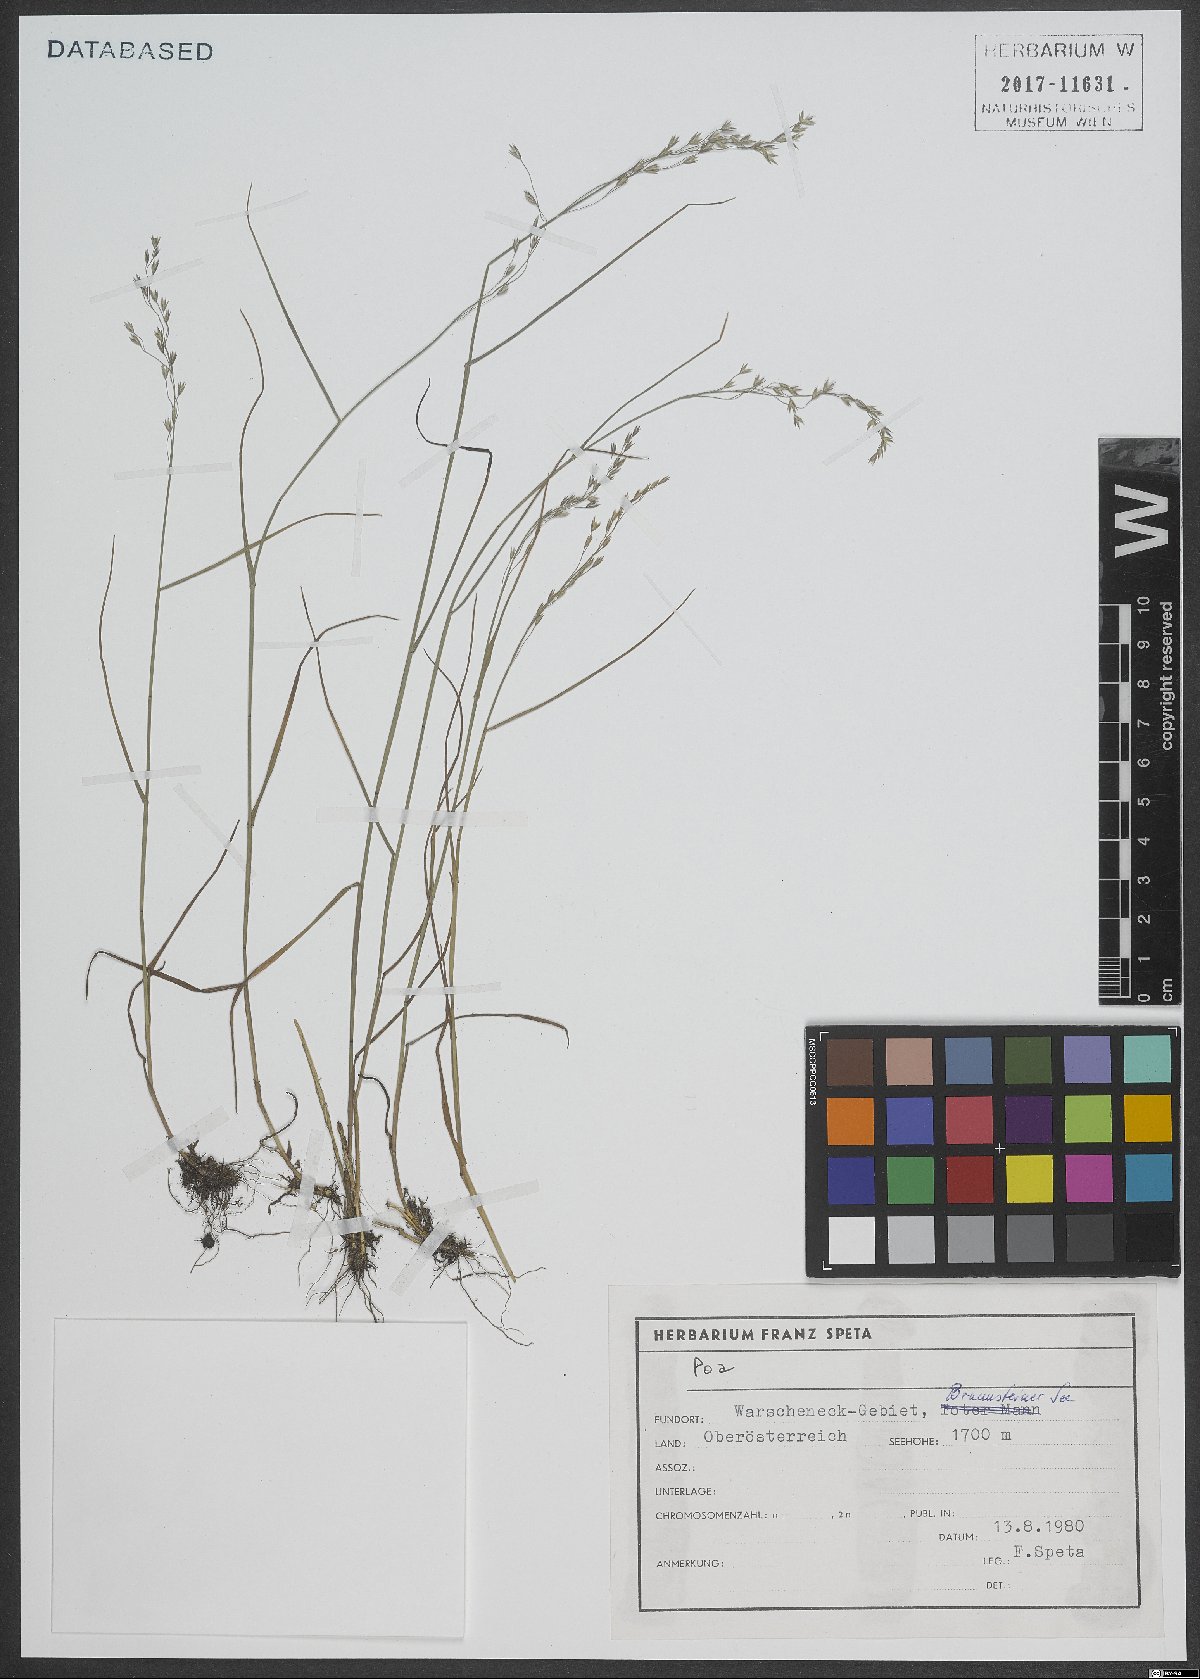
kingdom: Plantae
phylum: Tracheophyta
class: Liliopsida
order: Poales
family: Poaceae
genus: Poa
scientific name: Poa
